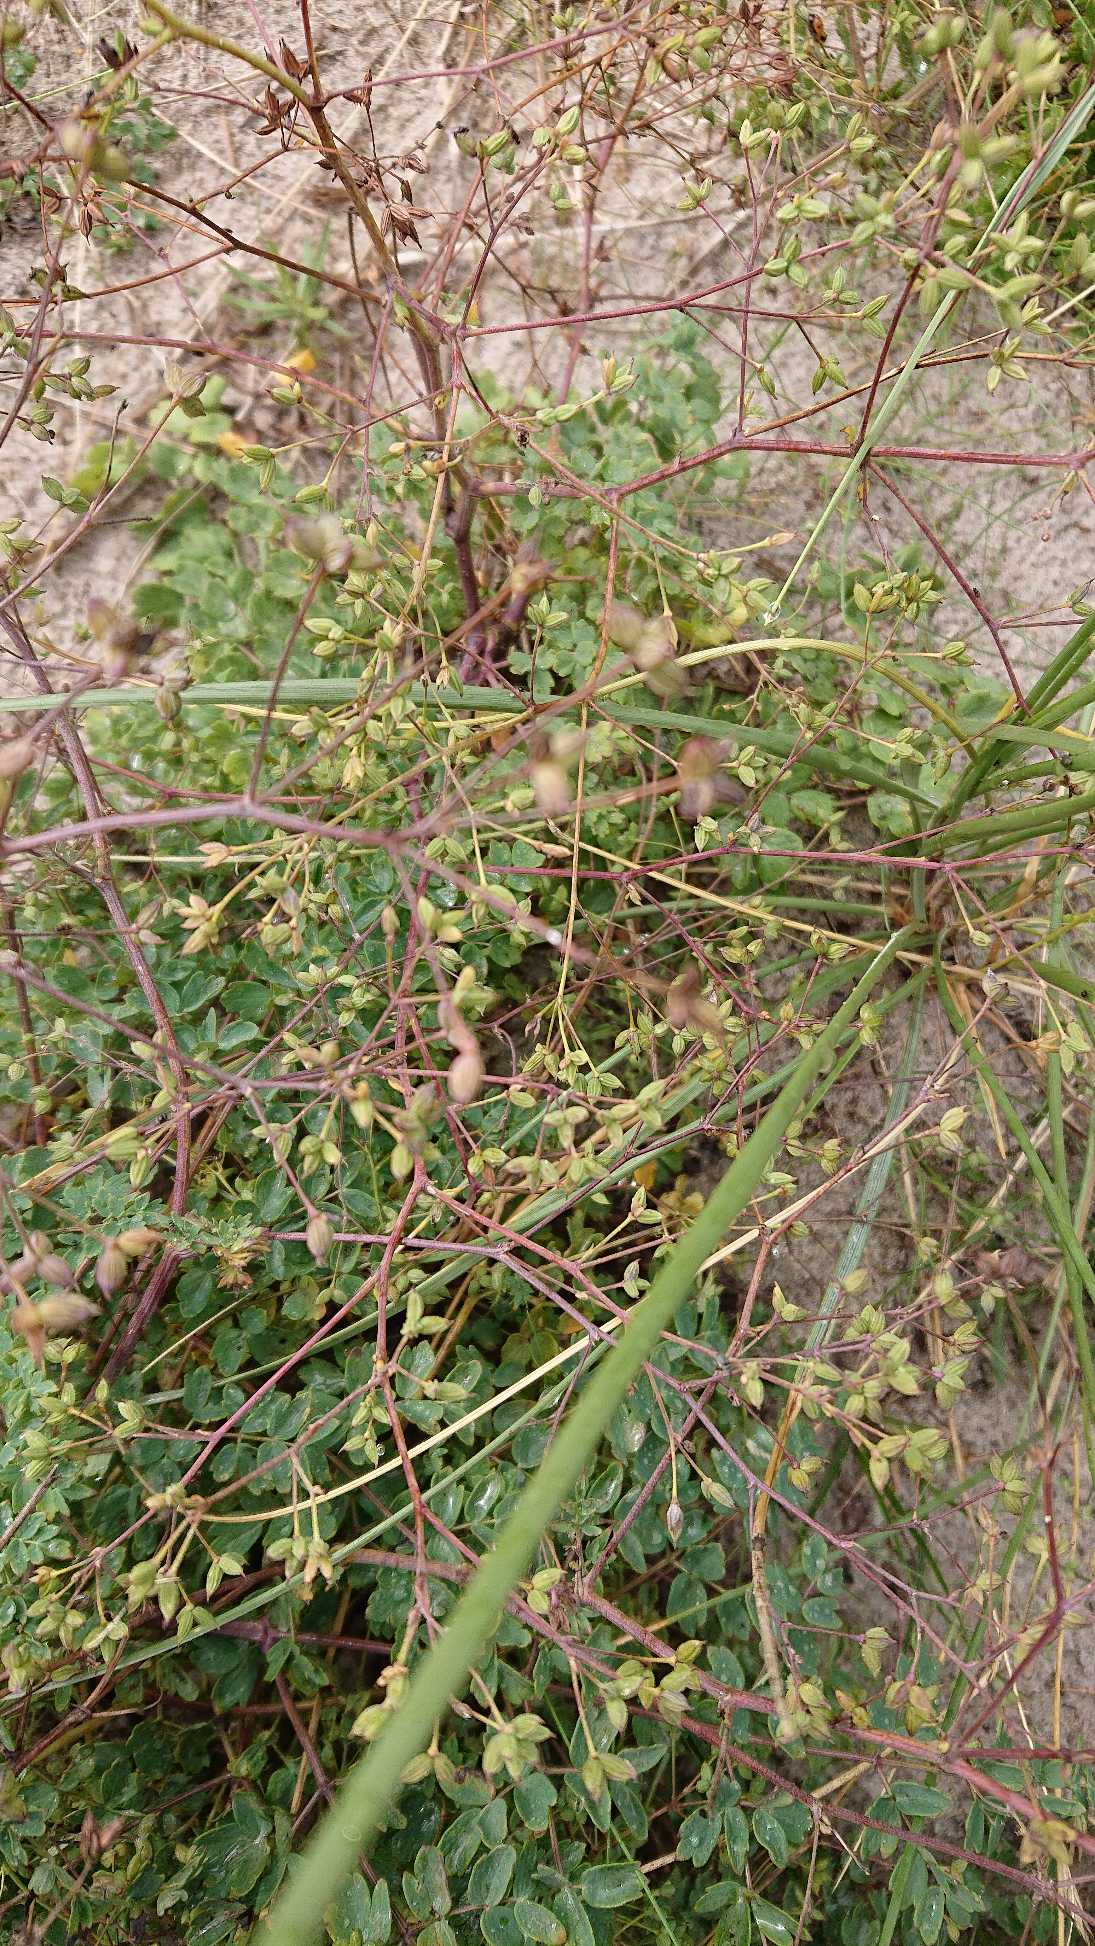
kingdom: Plantae
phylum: Tracheophyta
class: Magnoliopsida
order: Ranunculales
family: Ranunculaceae
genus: Thalictrum
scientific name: Thalictrum minus
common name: Liden frøstjerne
